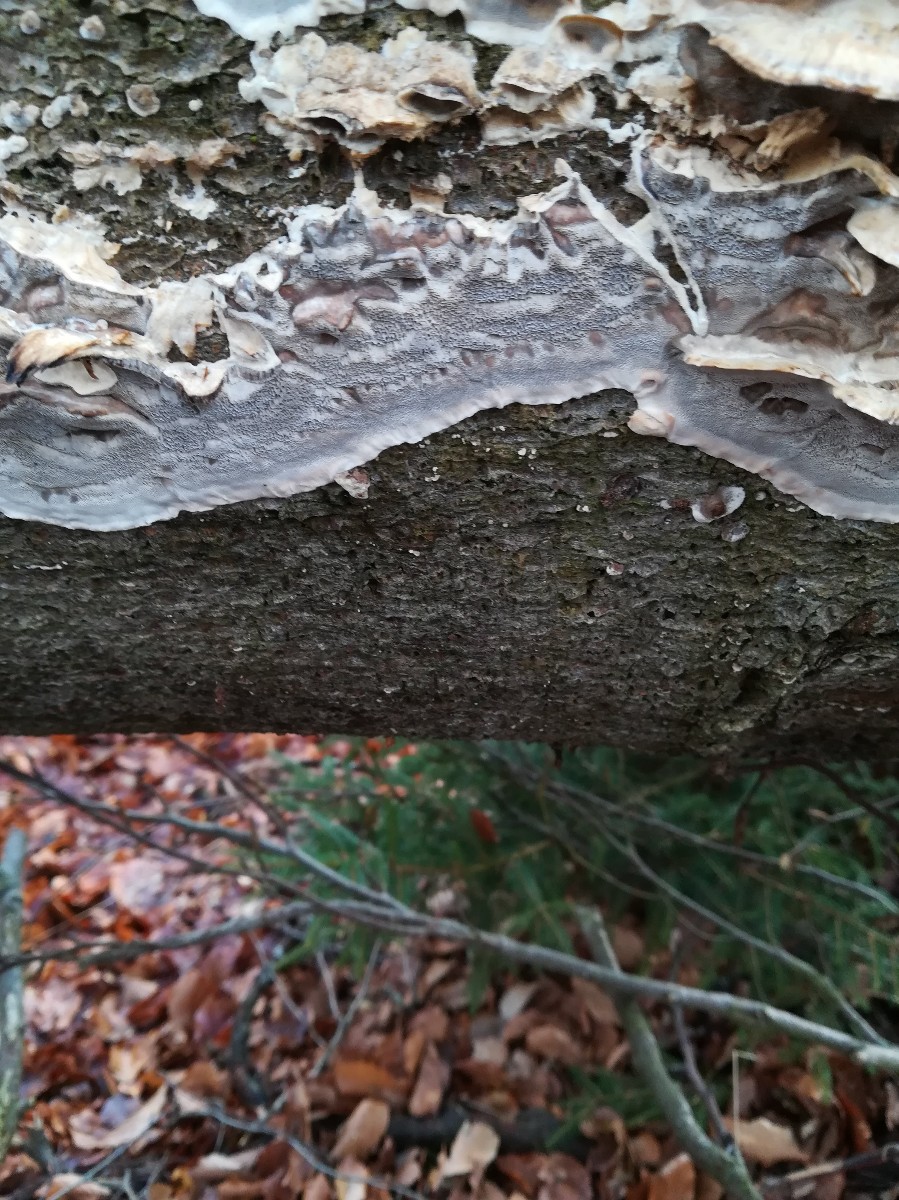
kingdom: Fungi
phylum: Basidiomycota
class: Agaricomycetes
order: Polyporales
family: Phanerochaetaceae
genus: Bjerkandera
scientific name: Bjerkandera adusta
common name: sveden sodporesvamp
